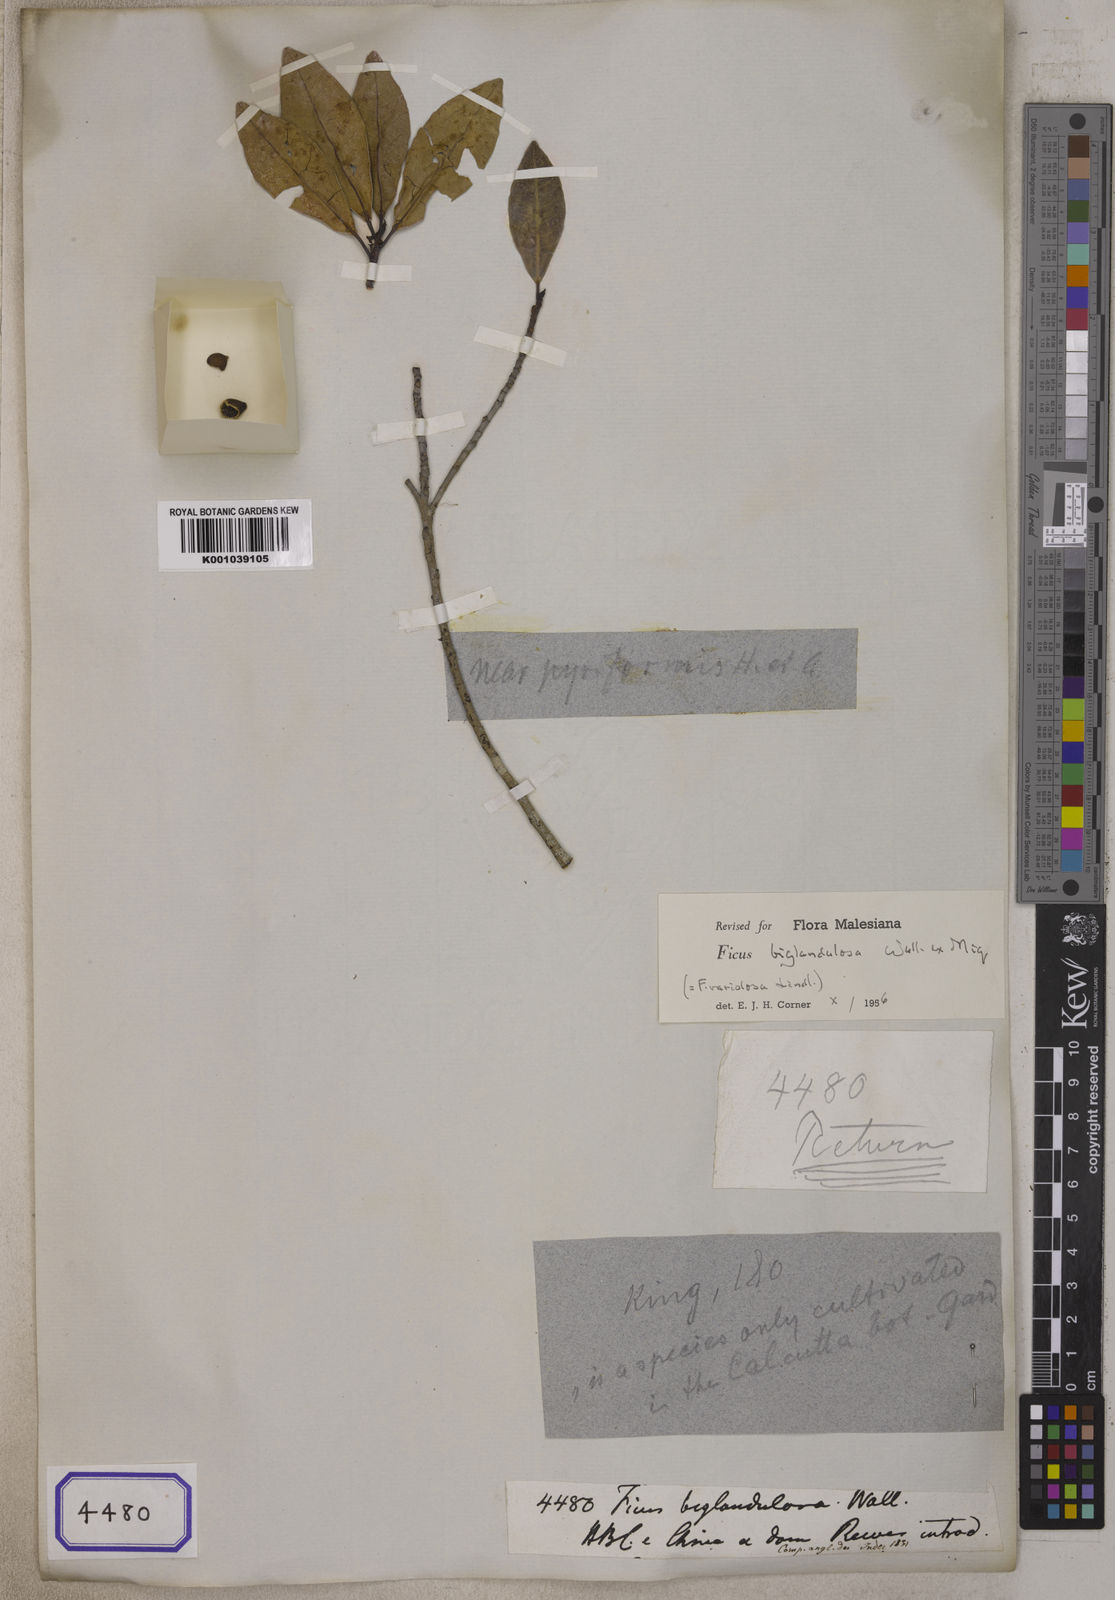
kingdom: Plantae
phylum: Tracheophyta
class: Magnoliopsida
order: Rosales
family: Moraceae
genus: Ficus
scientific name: Ficus
